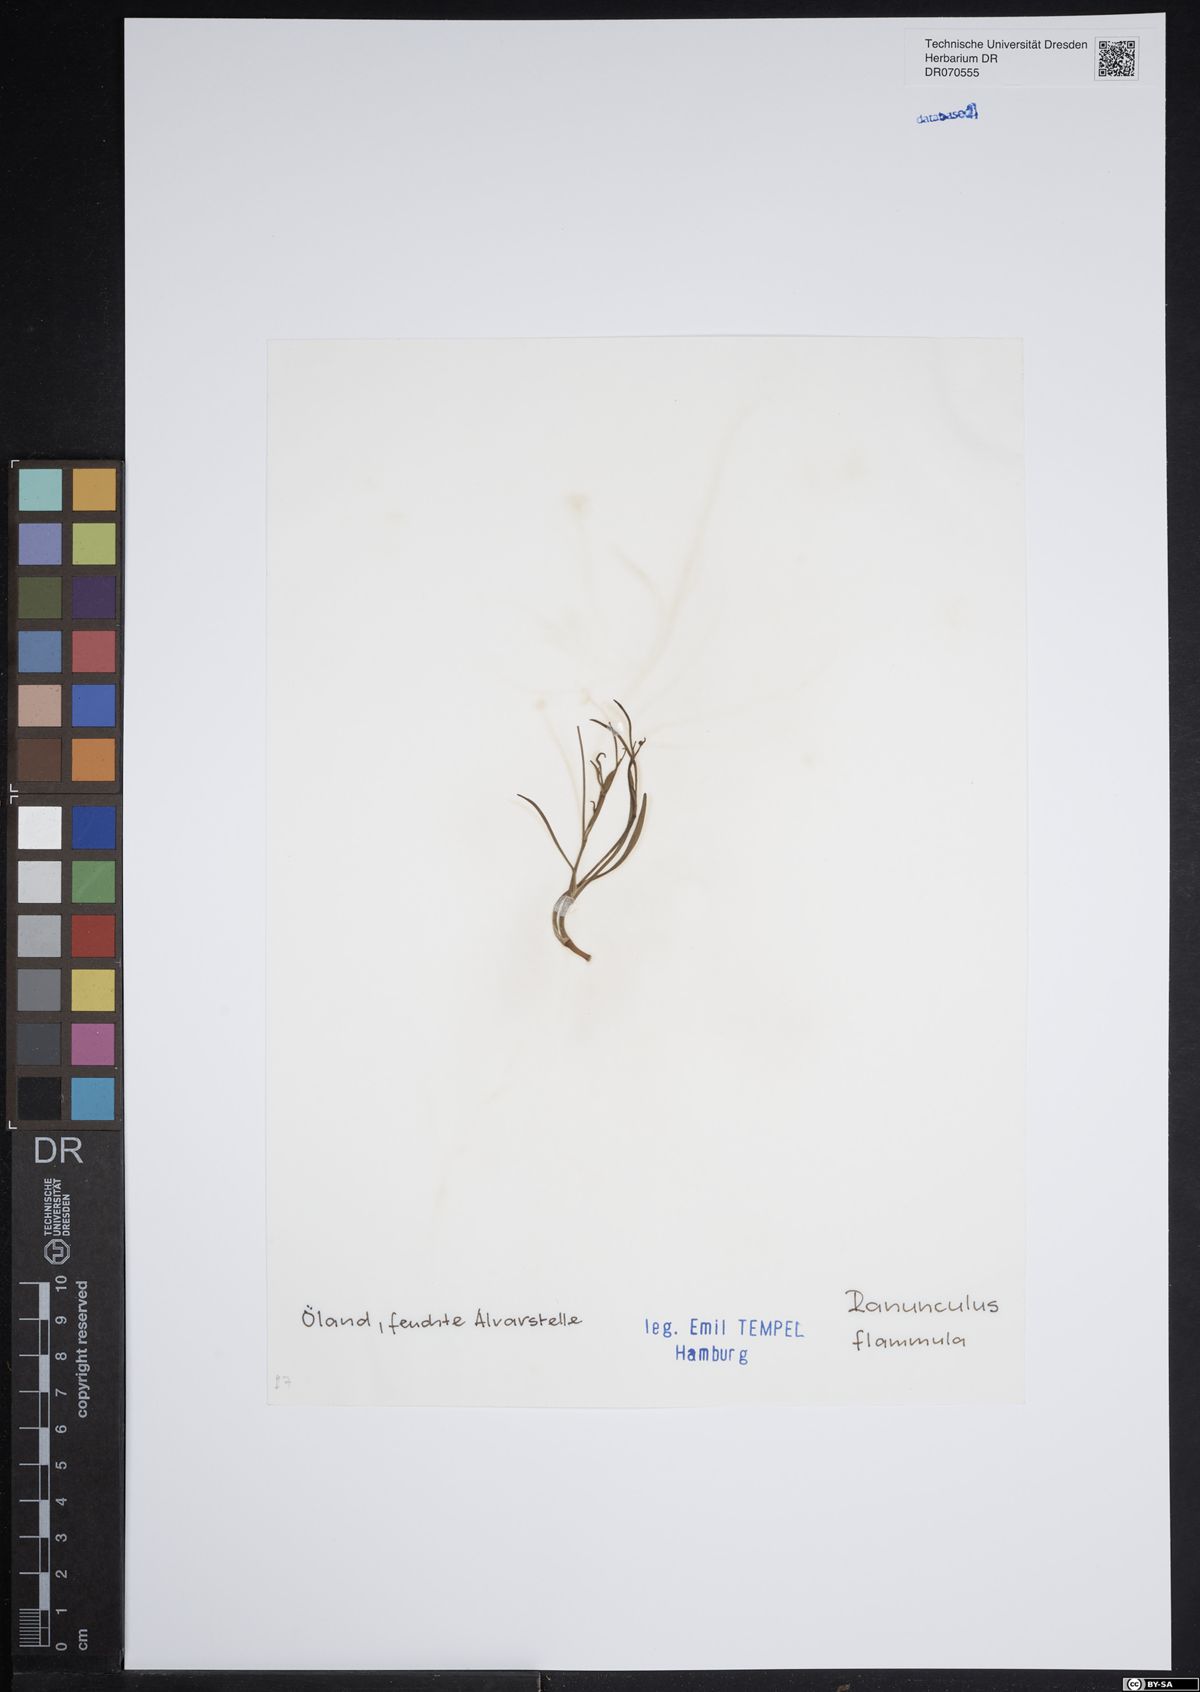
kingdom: Plantae
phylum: Tracheophyta
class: Magnoliopsida
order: Ranunculales
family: Ranunculaceae
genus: Ranunculus
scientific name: Ranunculus flammula
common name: Lesser spearwort
